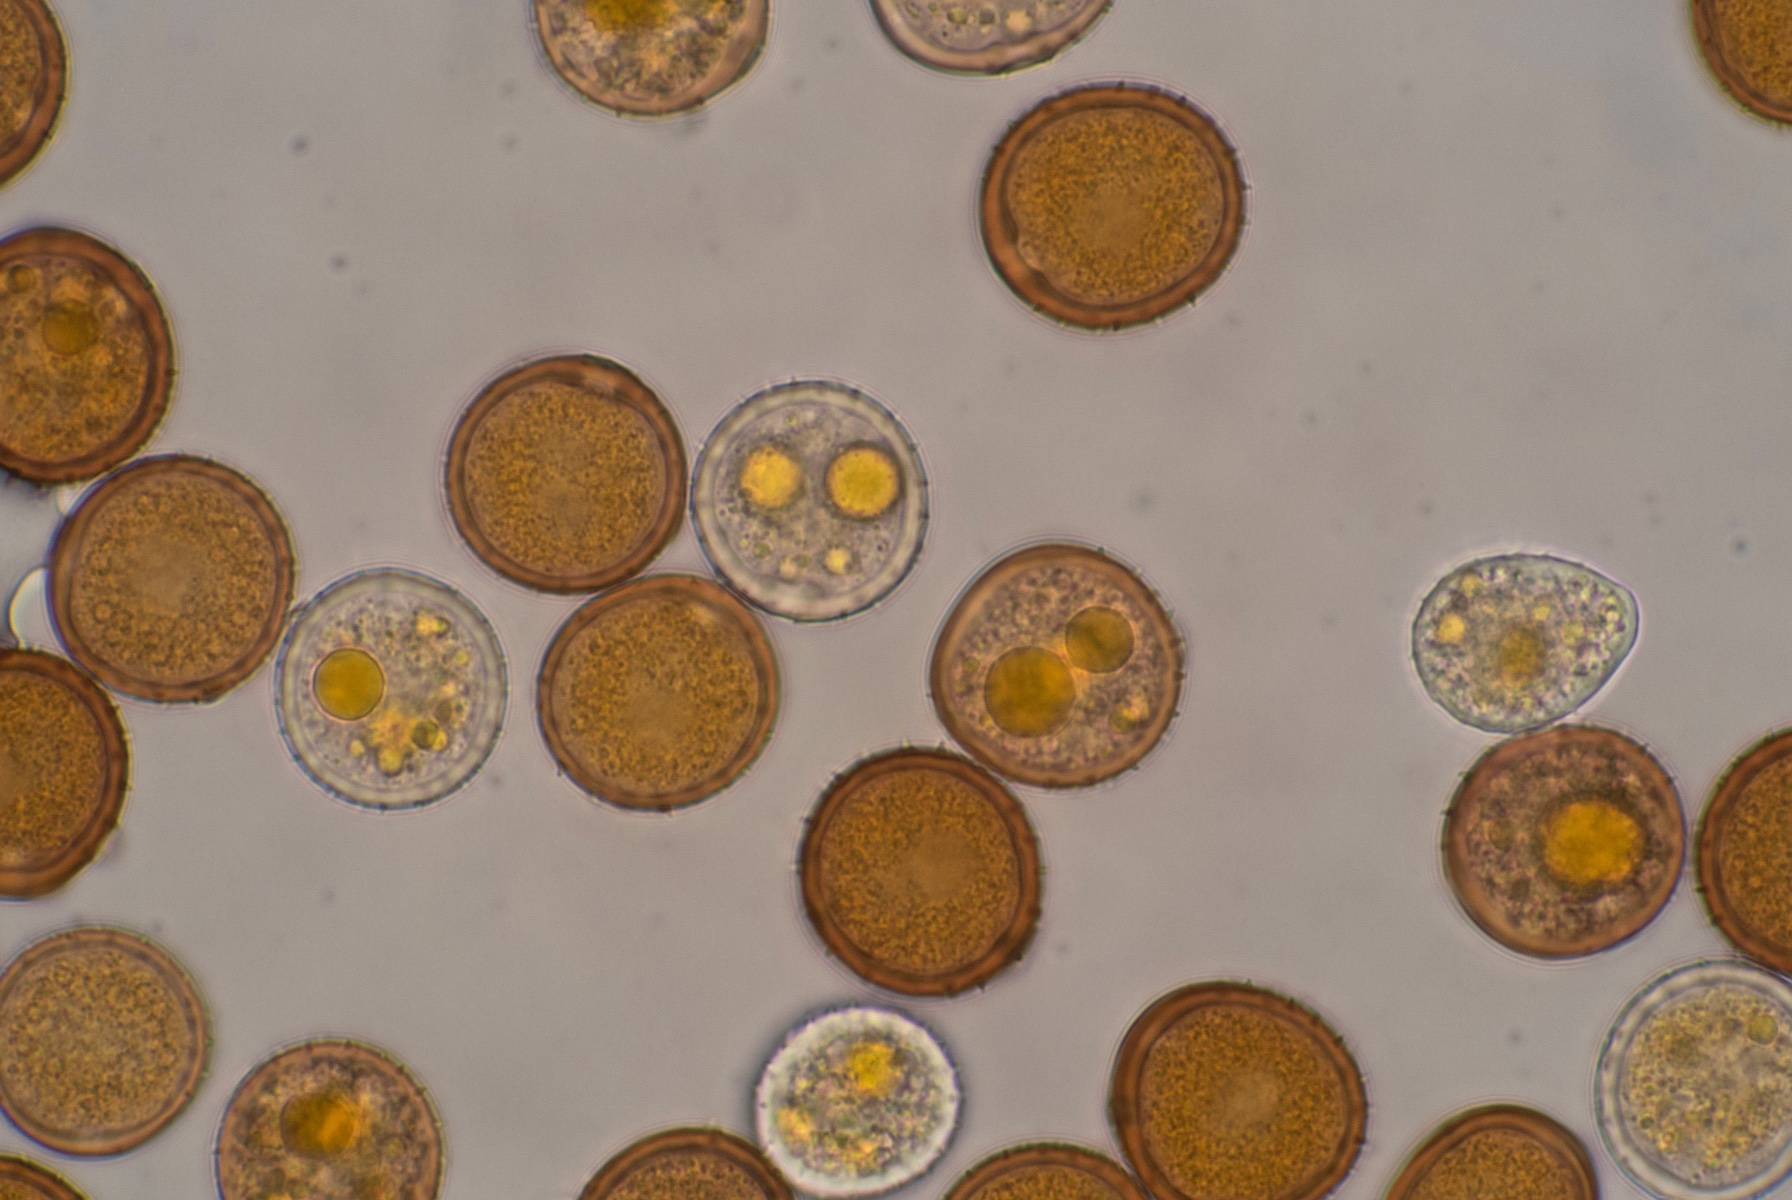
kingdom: Fungi
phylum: Basidiomycota
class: Pucciniomycetes
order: Pucciniales
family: Pucciniaceae
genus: Uromyces
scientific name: Uromyces valerianae
